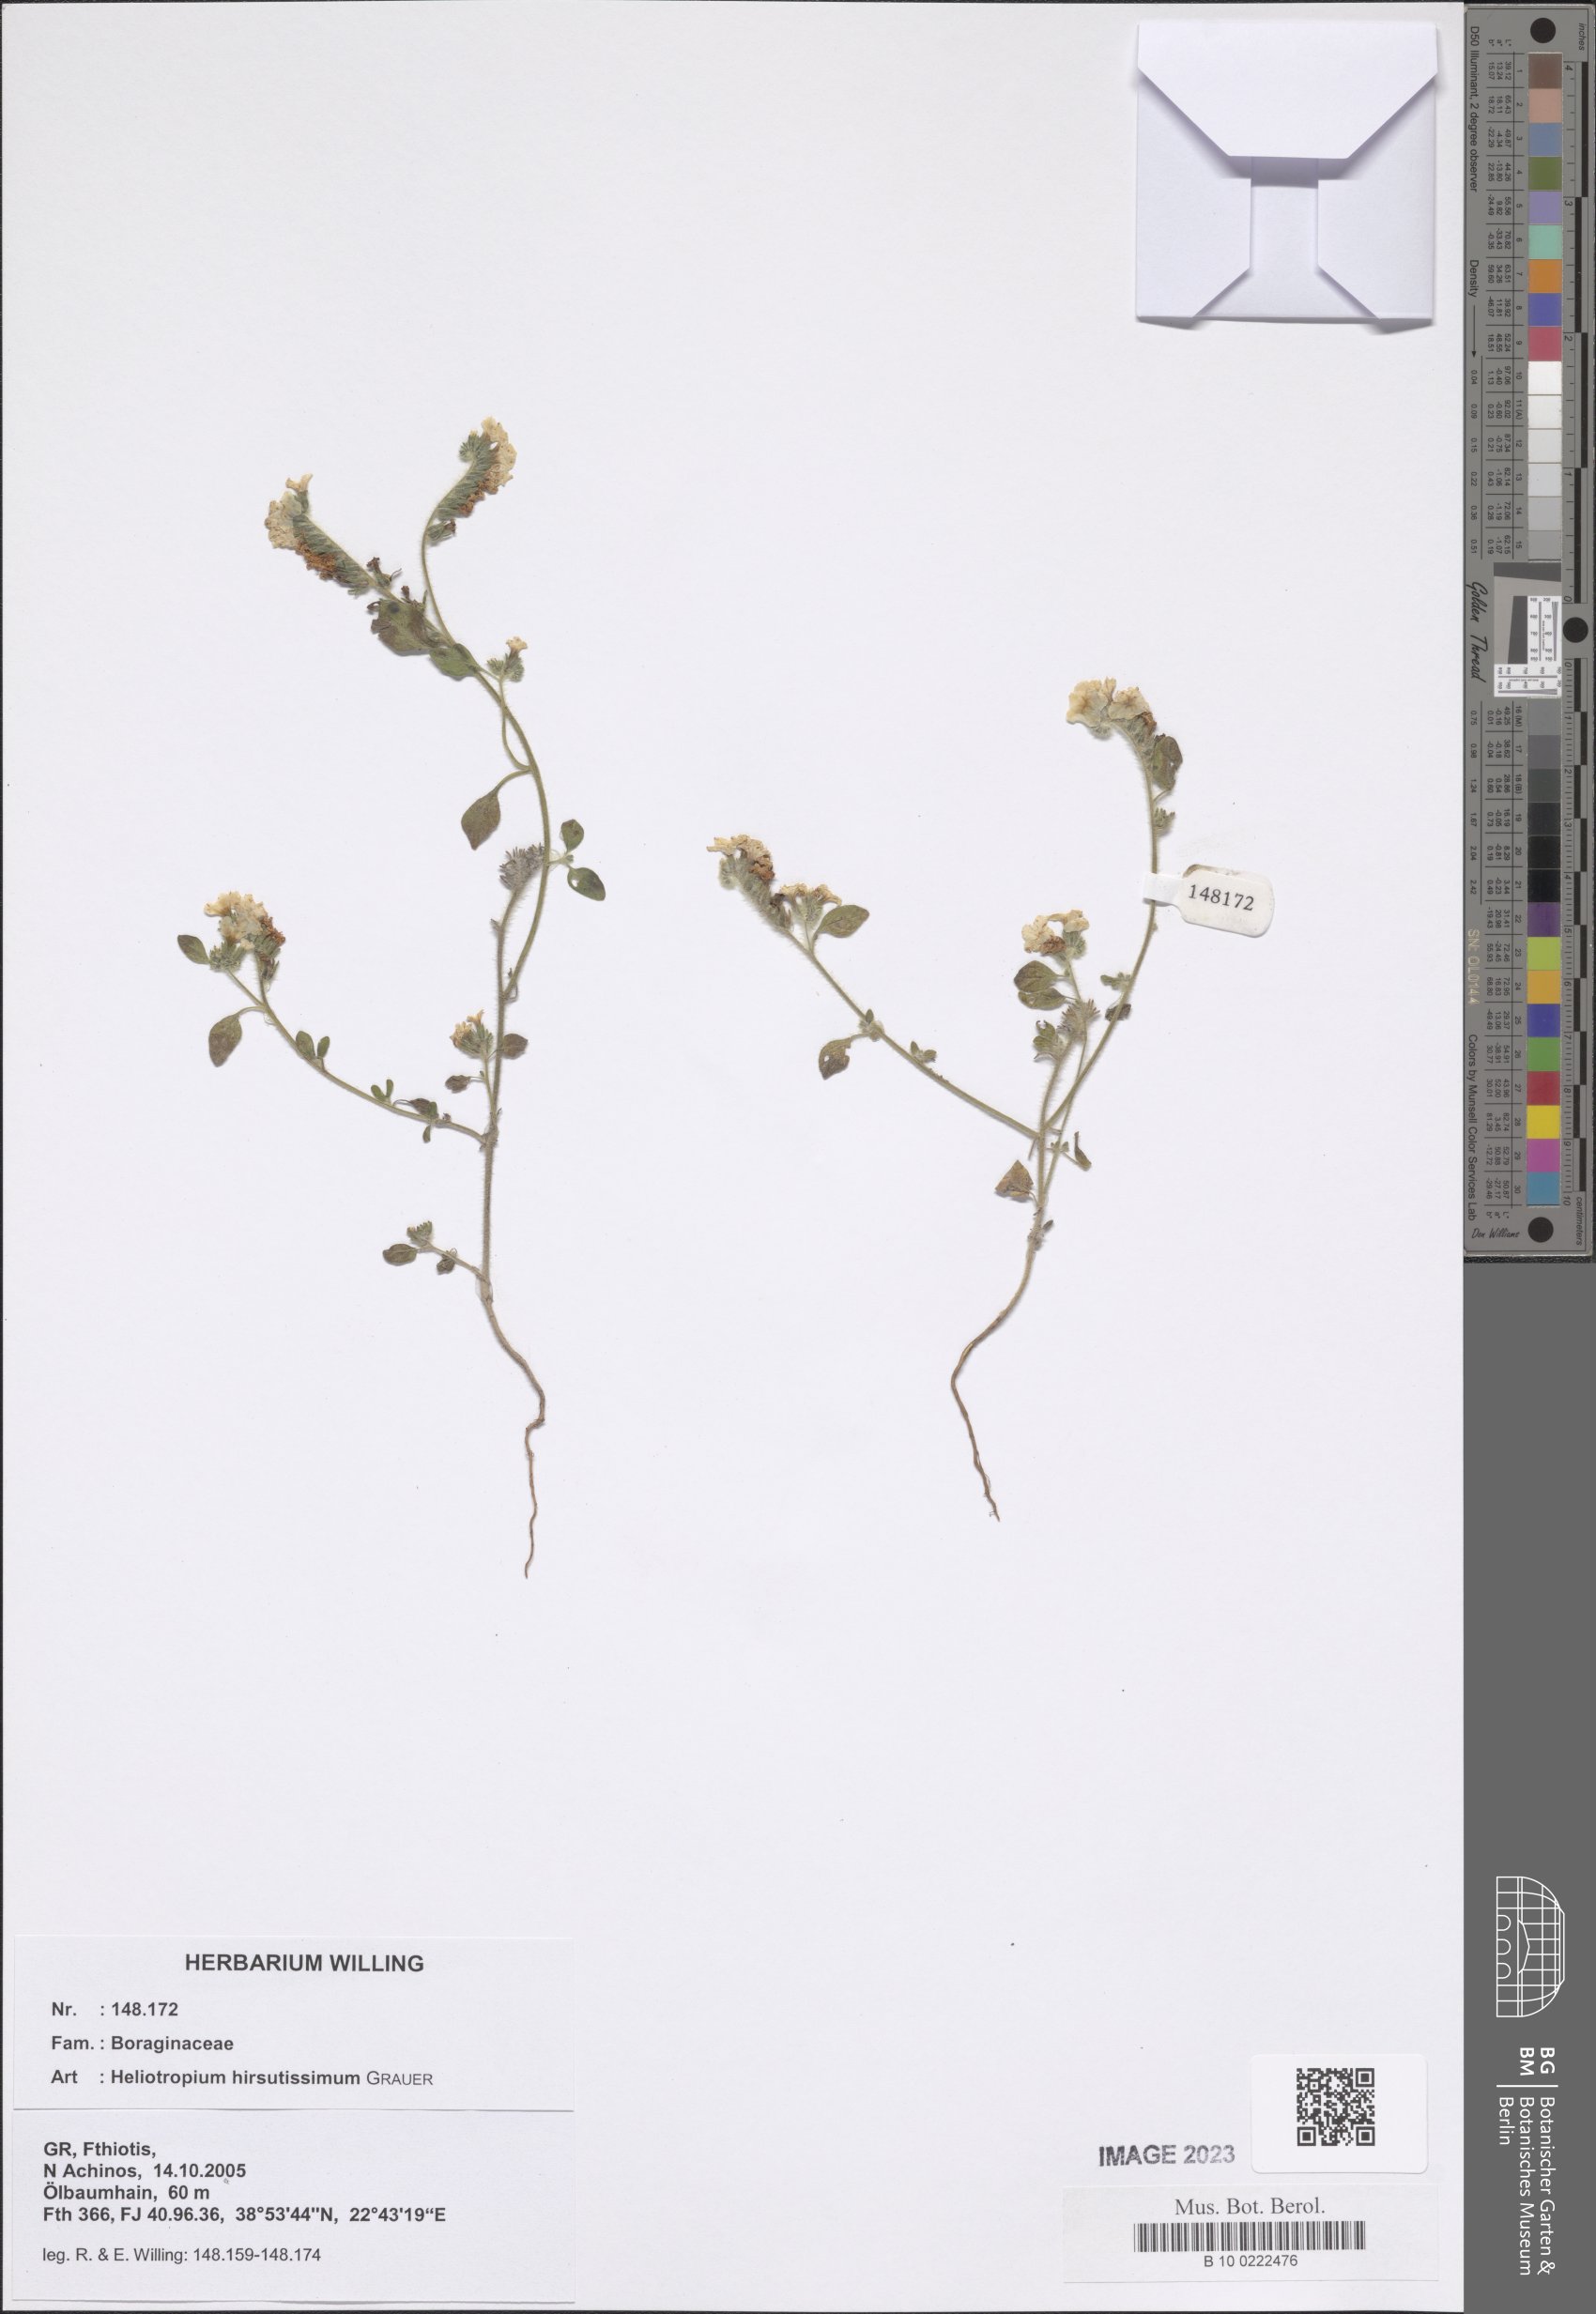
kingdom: Plantae
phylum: Tracheophyta
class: Magnoliopsida
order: Boraginales
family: Heliotropiaceae
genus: Heliotropium
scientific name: Heliotropium hirsutissimum
